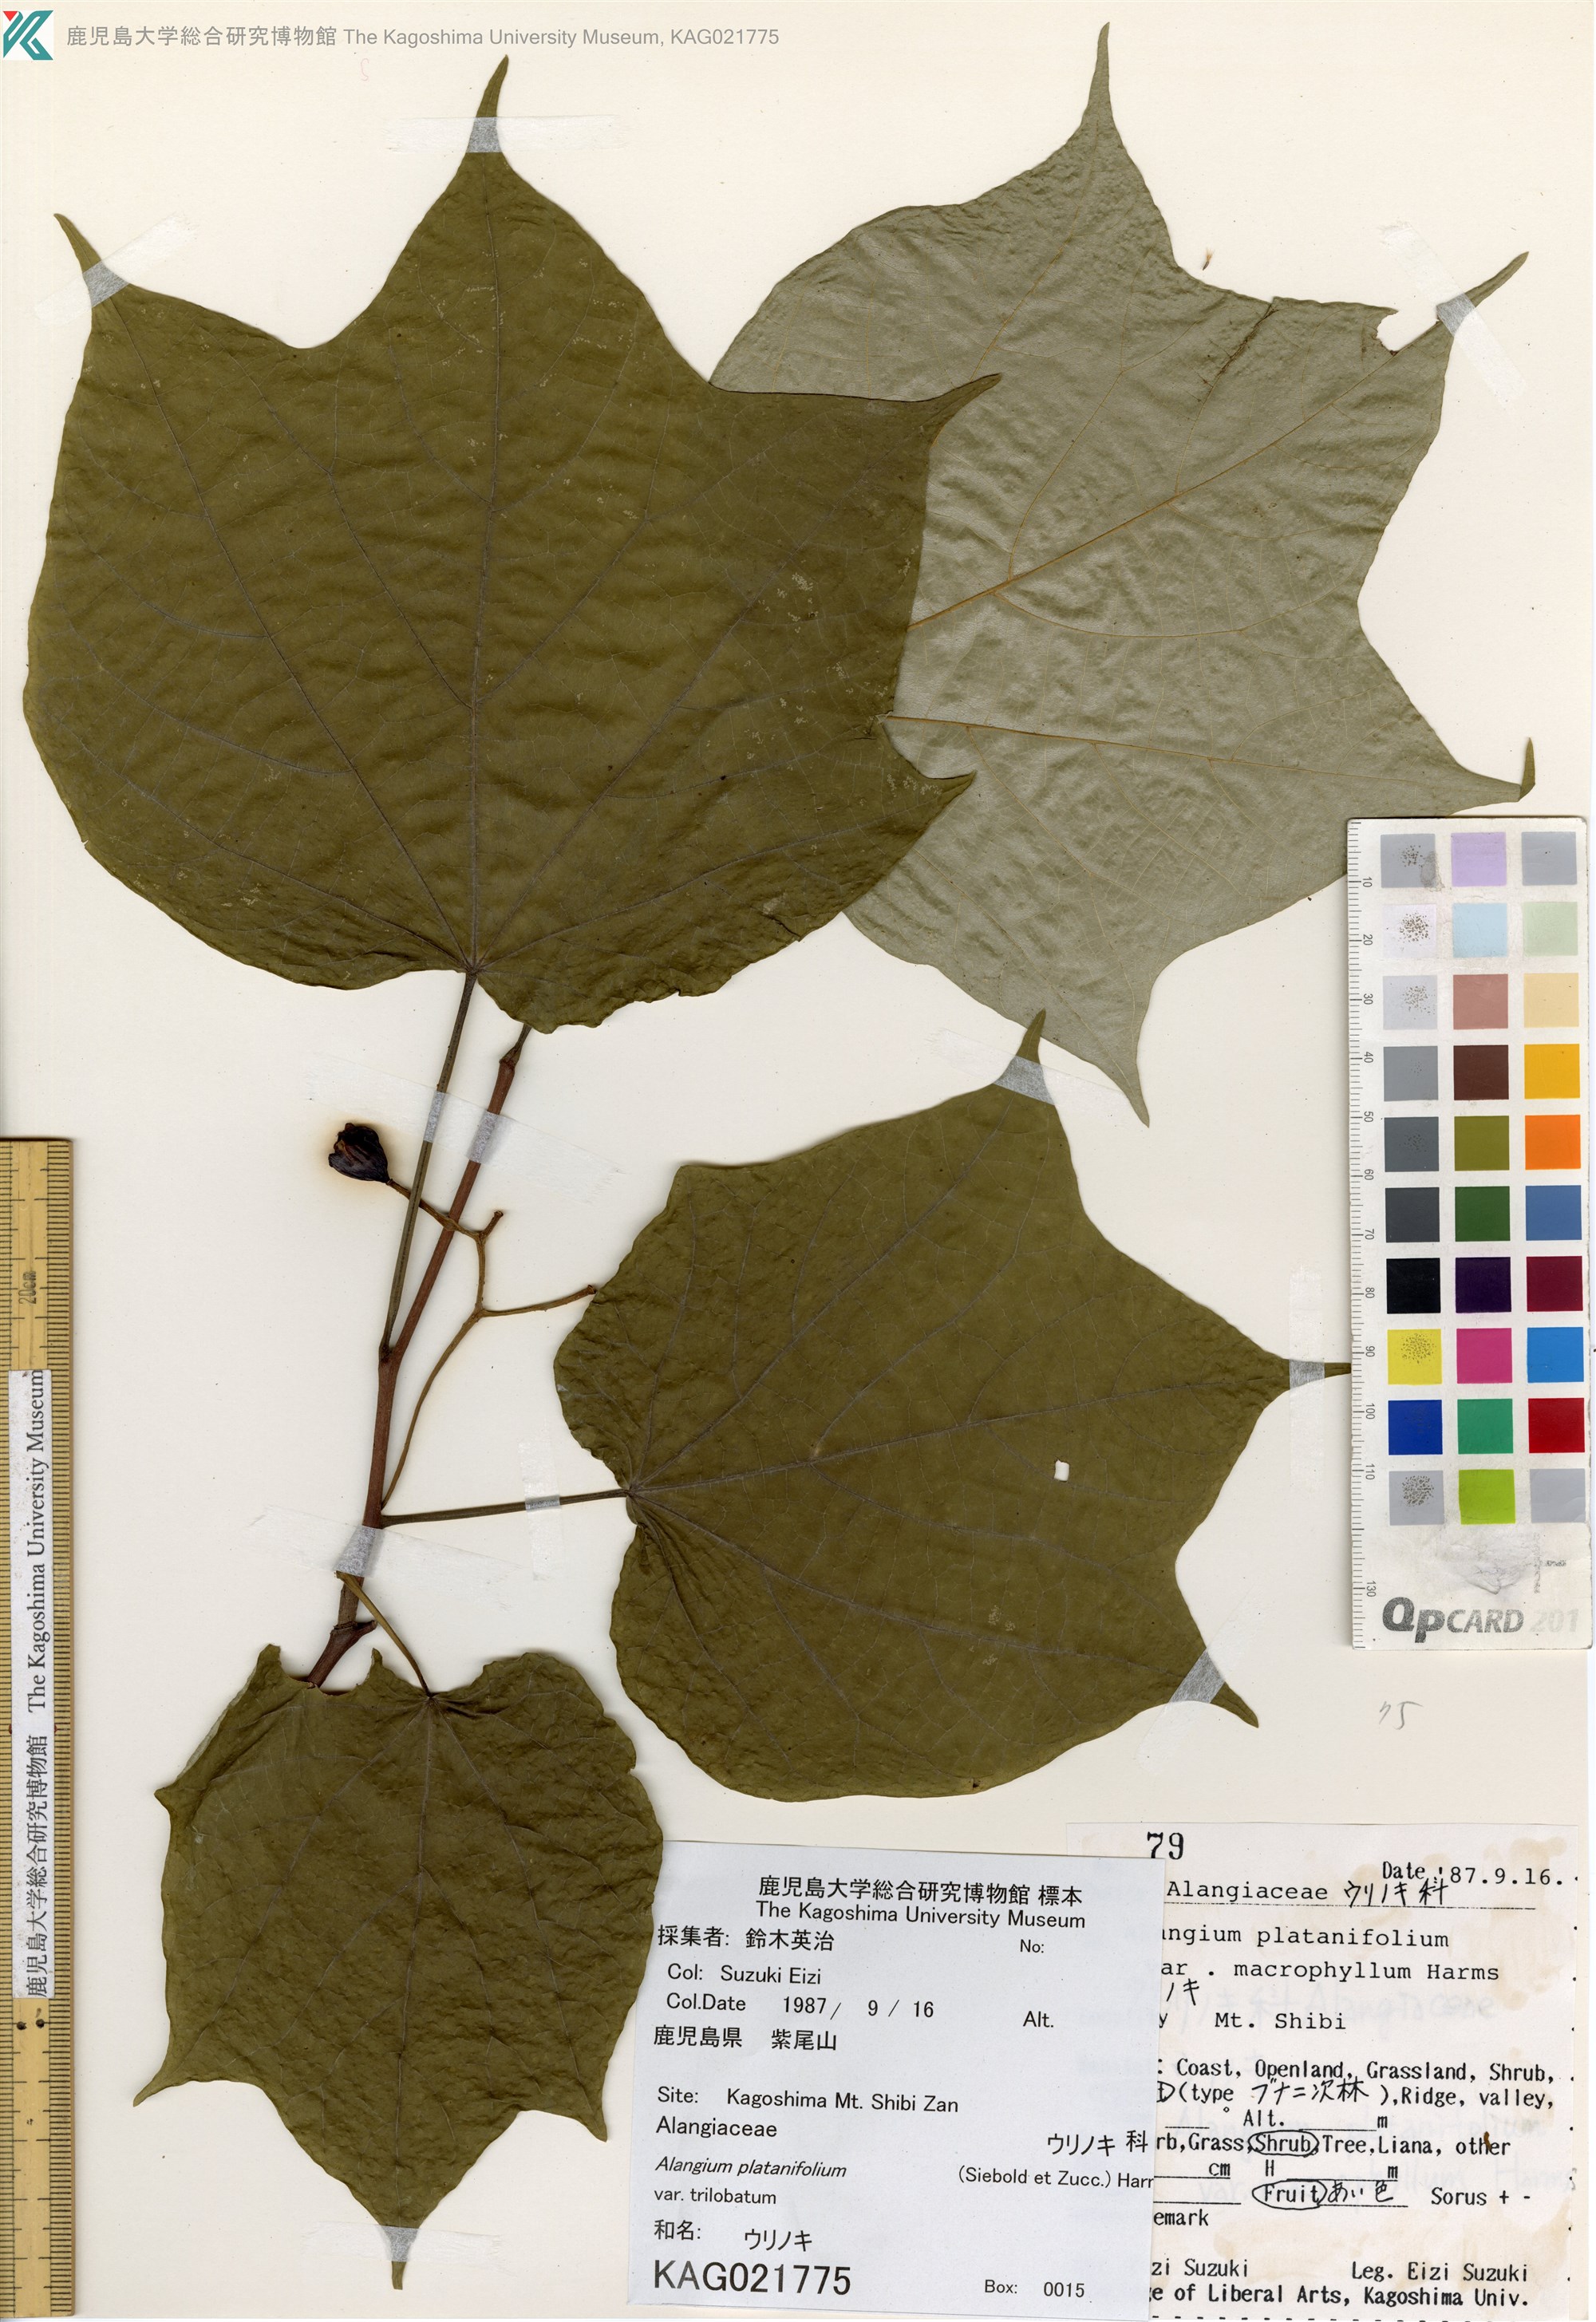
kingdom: Plantae
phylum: Tracheophyta
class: Magnoliopsida
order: Cornales
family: Cornaceae
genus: Alangium
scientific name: Alangium platanifolium
